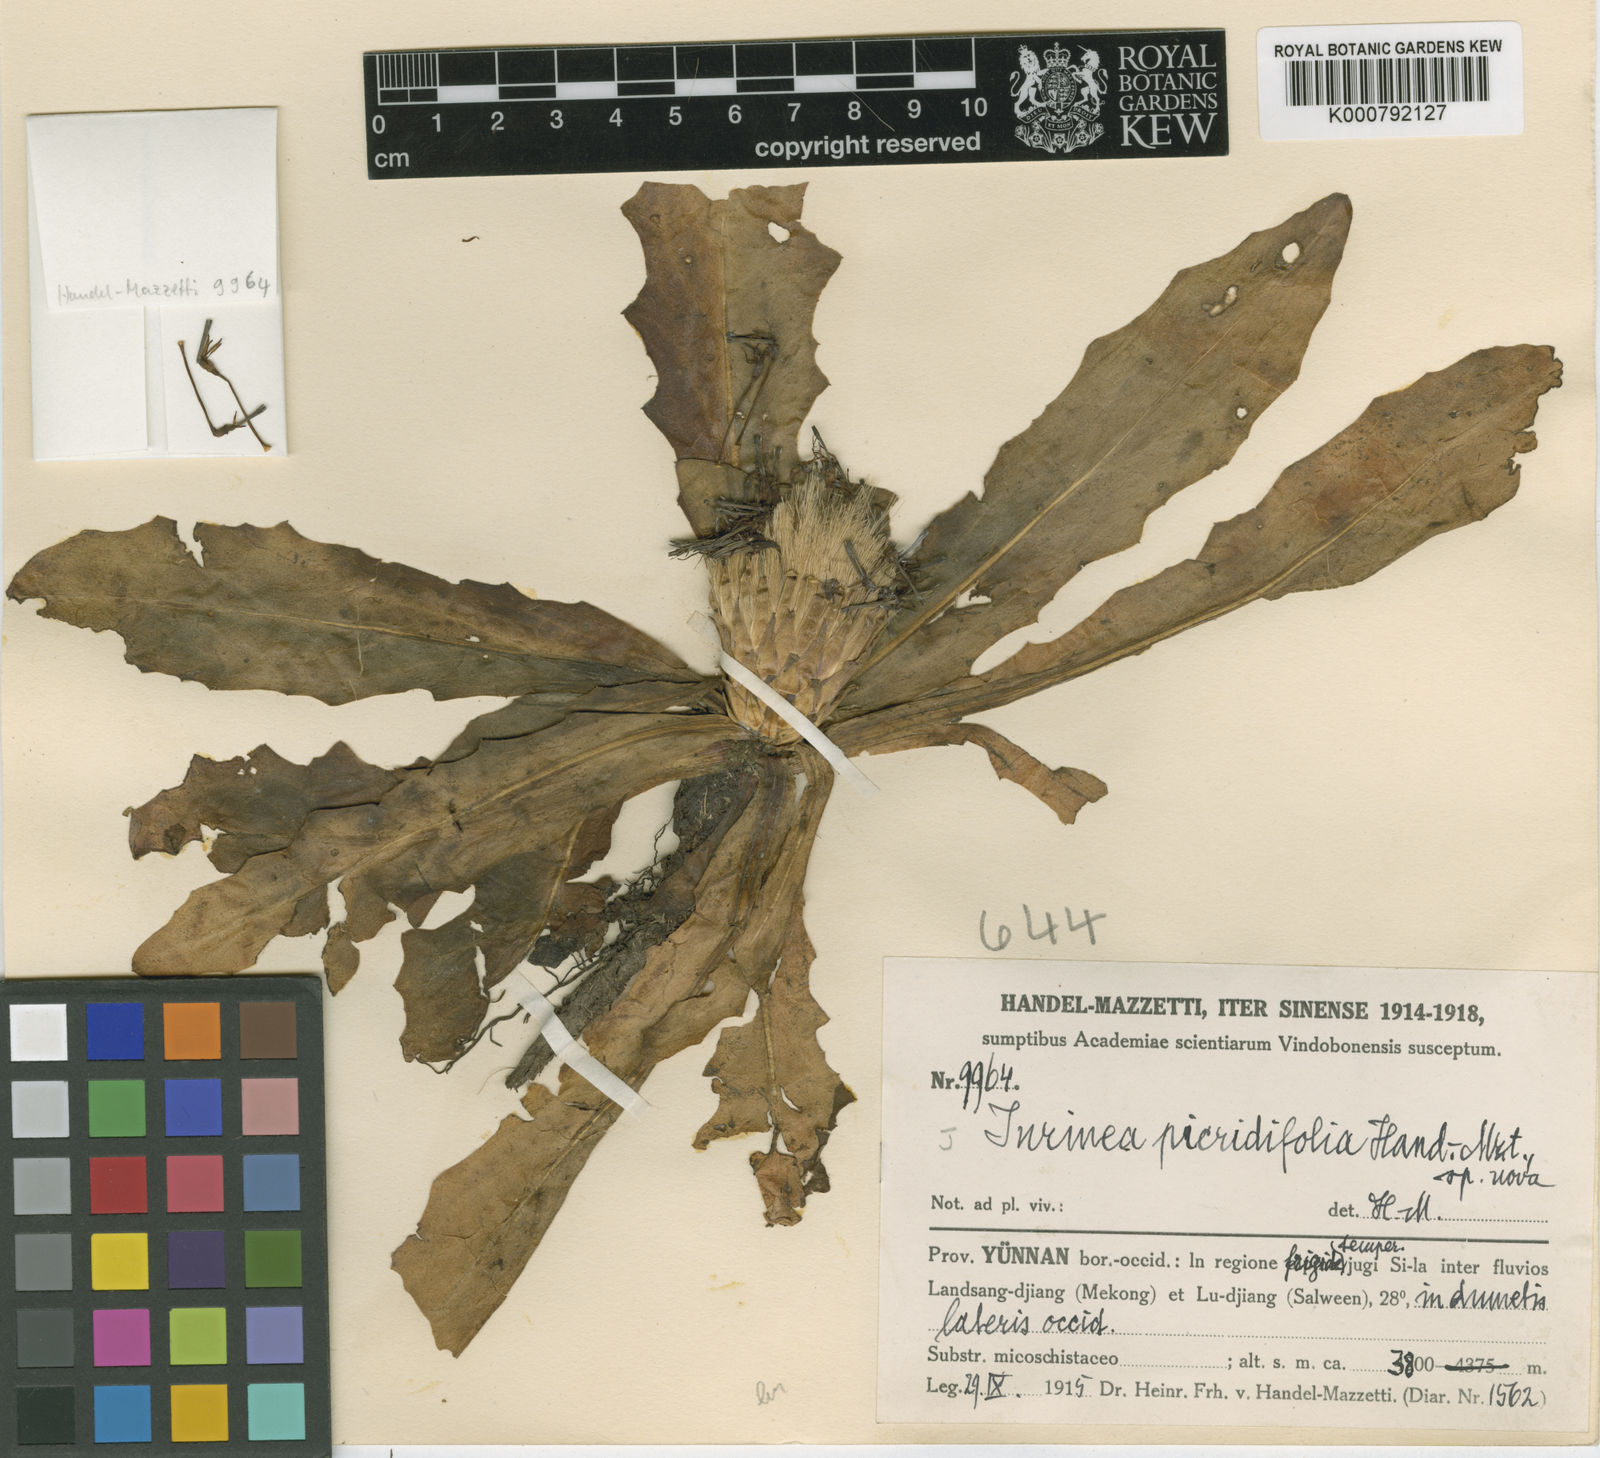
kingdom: Plantae
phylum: Tracheophyta
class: Magnoliopsida
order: Asterales
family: Asteraceae
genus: Saussurea
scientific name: Saussurea picridifolia
